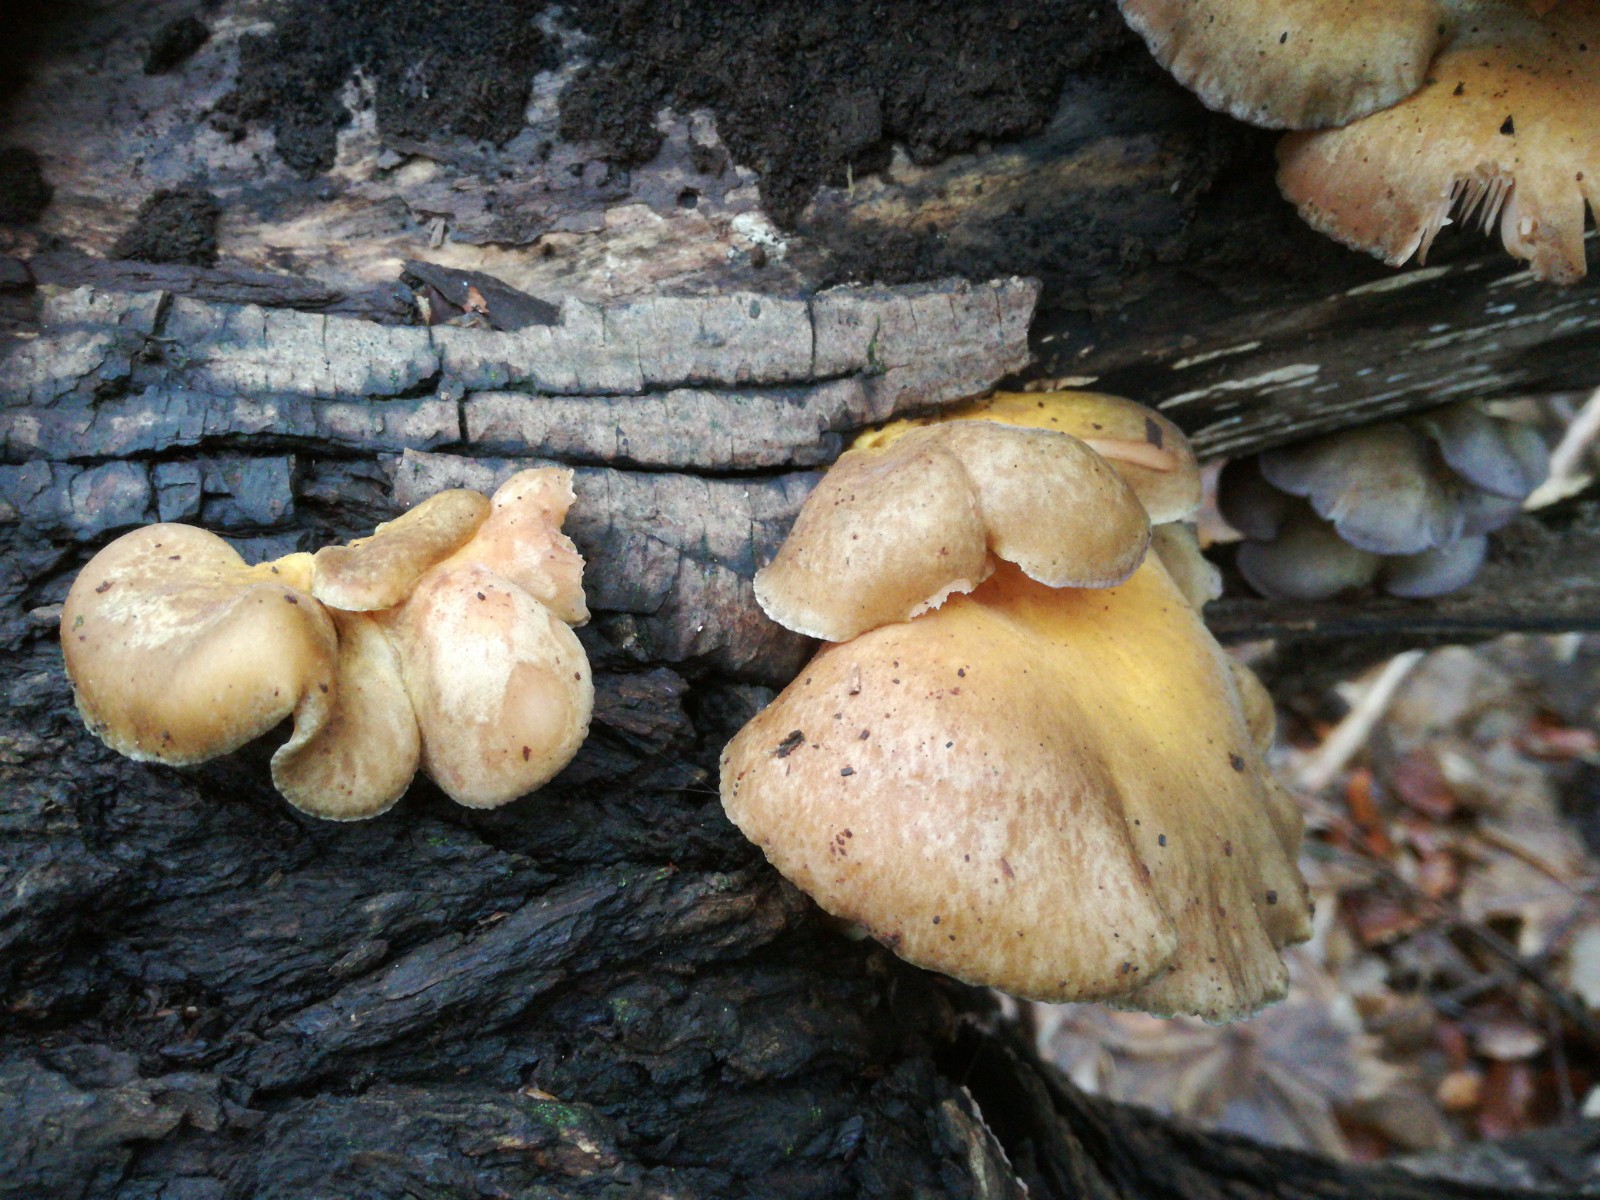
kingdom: Fungi
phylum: Basidiomycota
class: Agaricomycetes
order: Agaricales
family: Sarcomyxaceae
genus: Sarcomyxa
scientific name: Sarcomyxa serotina
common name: gummihat
